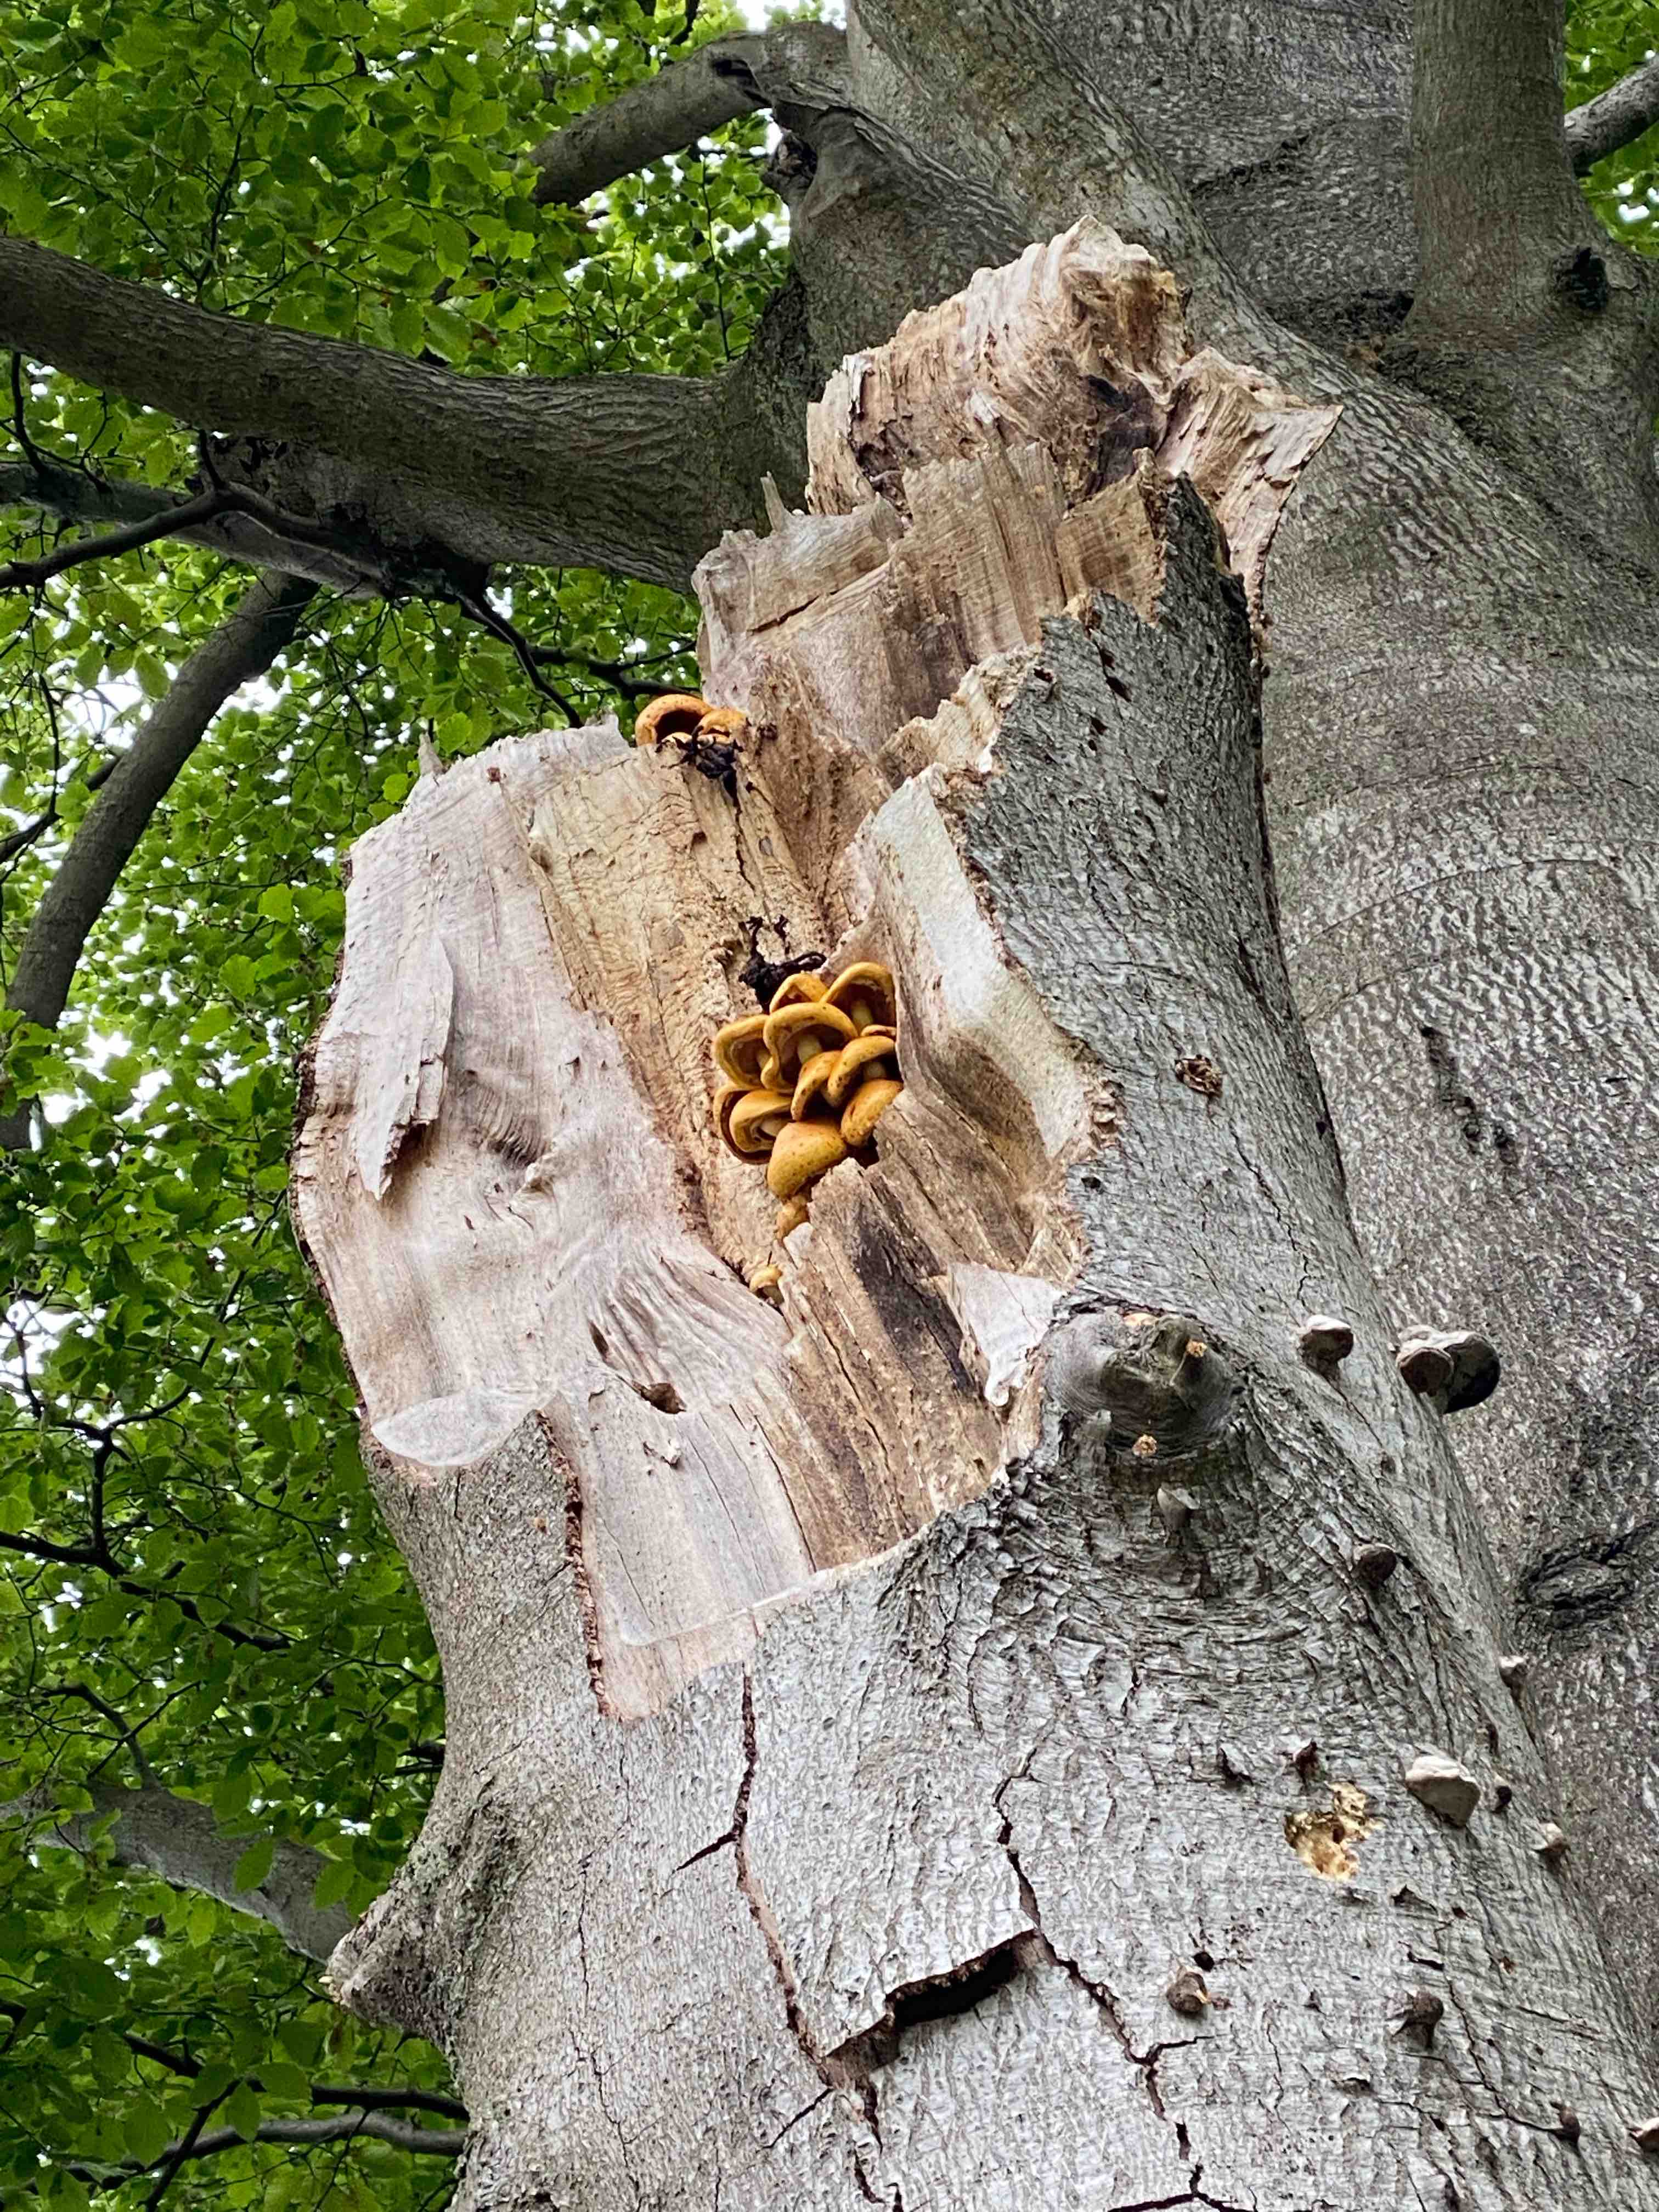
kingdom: Fungi
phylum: Basidiomycota
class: Agaricomycetes
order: Agaricales
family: Strophariaceae
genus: Pholiota
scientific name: Pholiota adiposa
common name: højtsiddende skælhat
